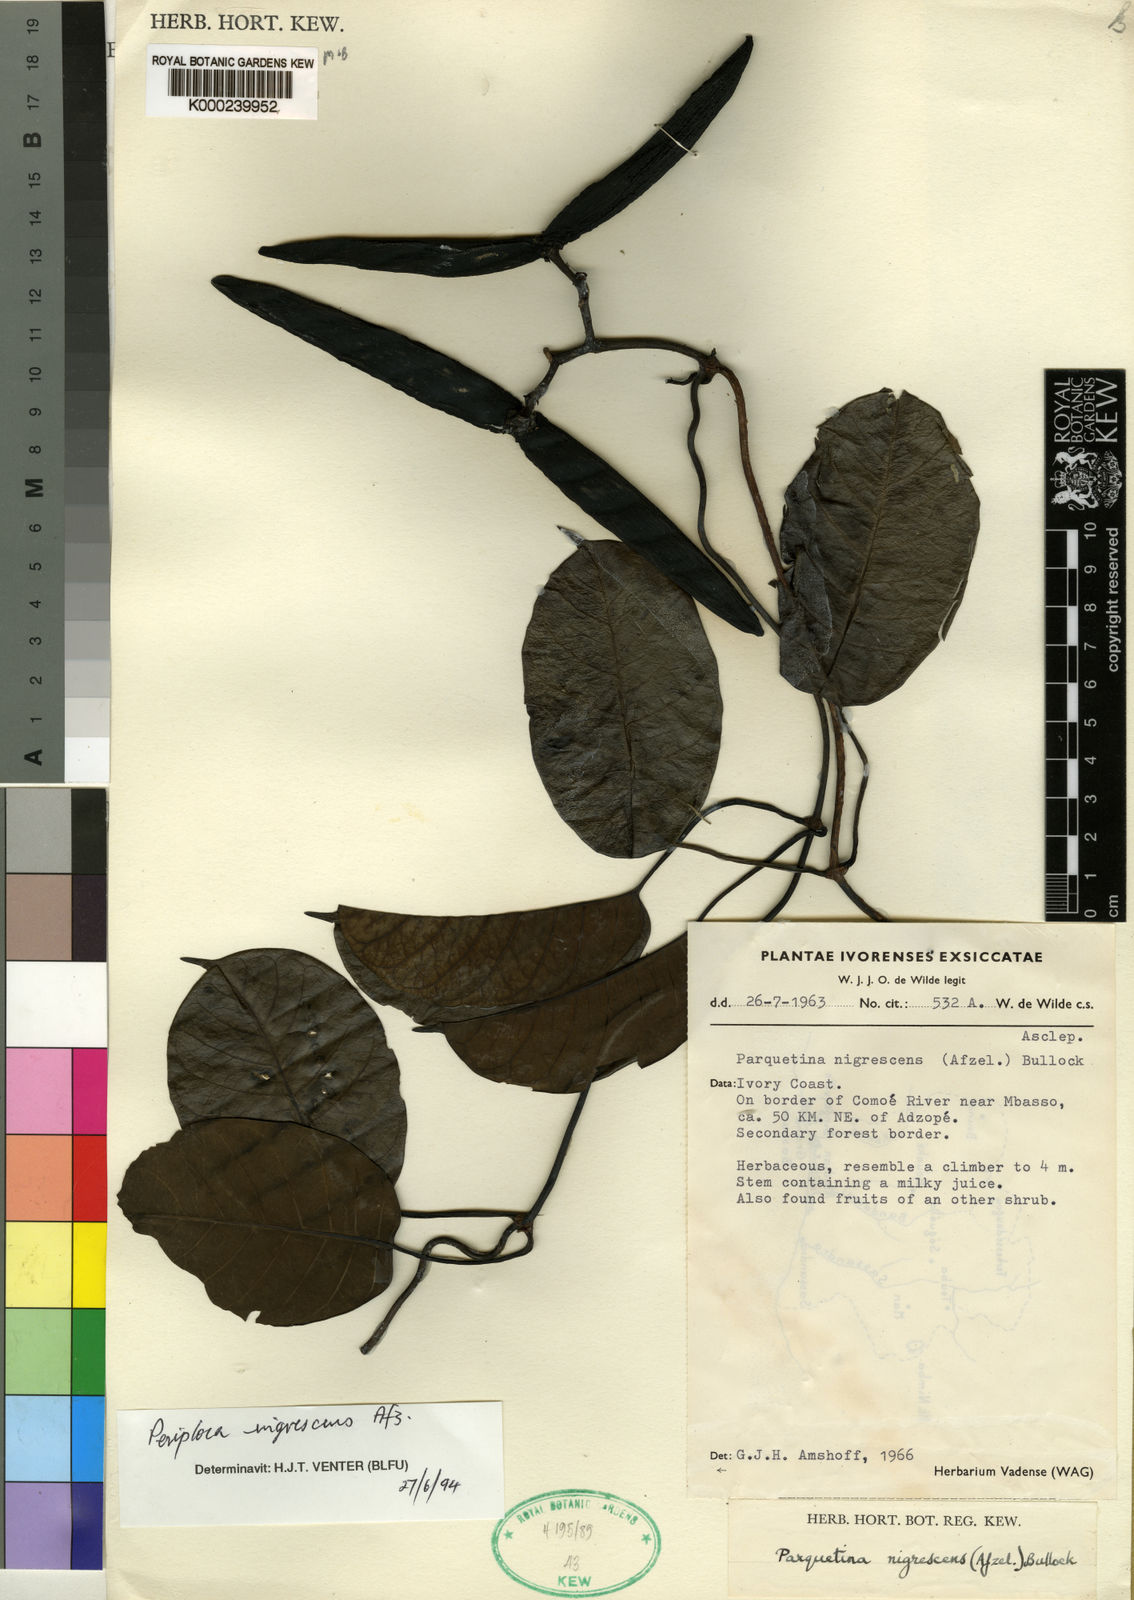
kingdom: Plantae
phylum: Tracheophyta
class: Magnoliopsida
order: Gentianales
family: Apocynaceae
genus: Periploca
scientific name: Periploca
